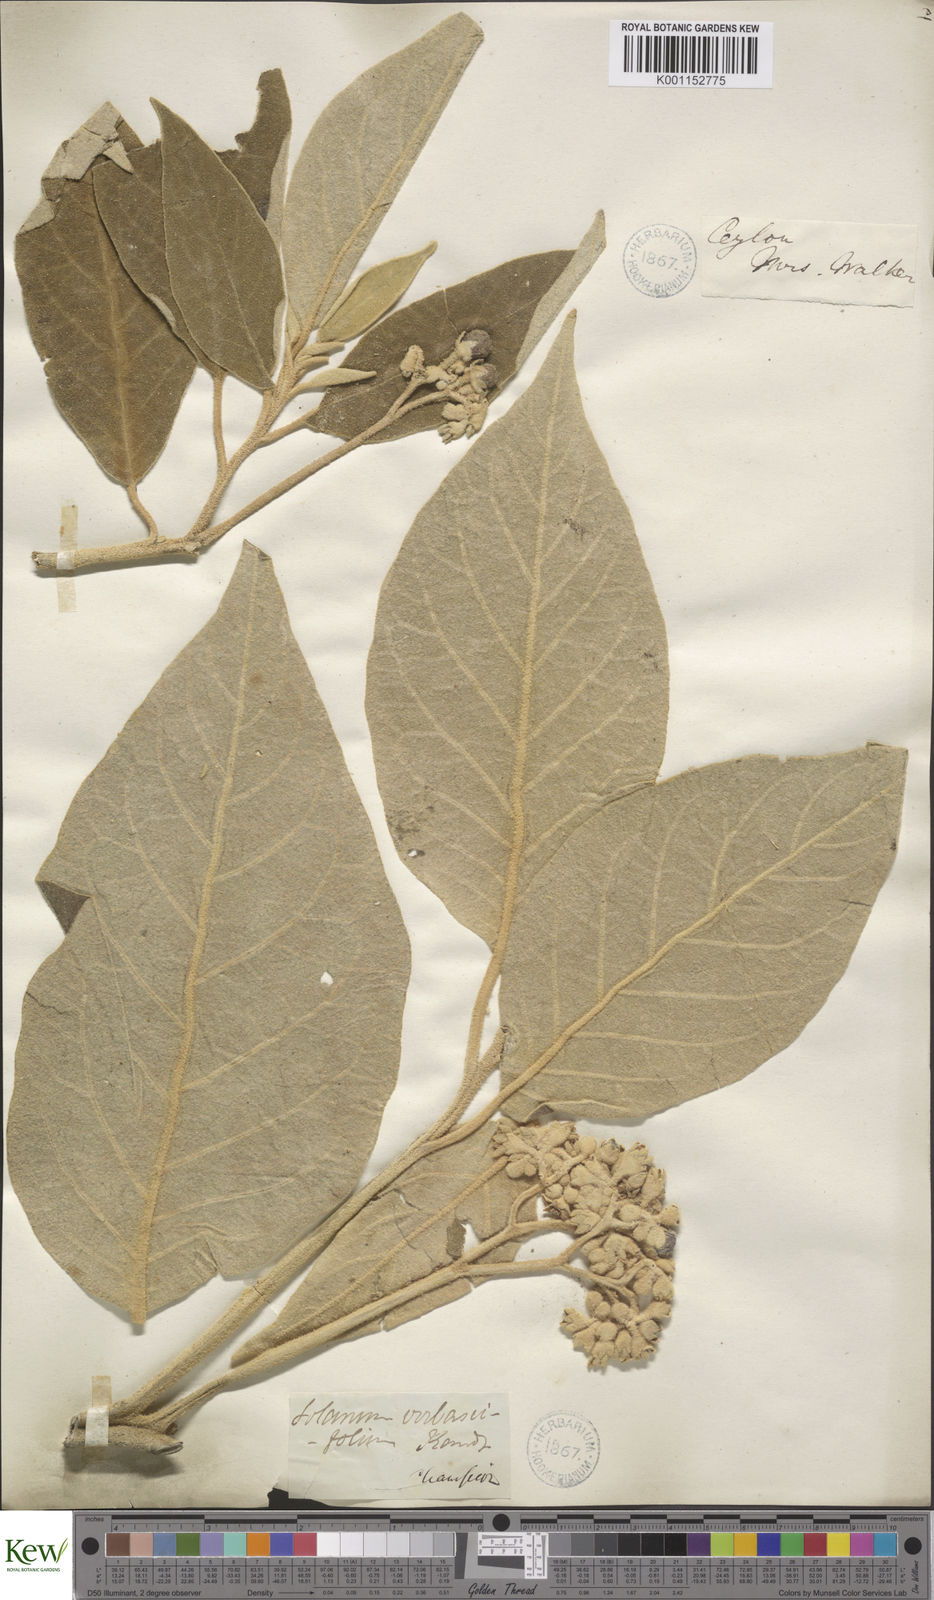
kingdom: Plantae
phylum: Tracheophyta
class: Magnoliopsida
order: Solanales
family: Solanaceae
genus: Solanum
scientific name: Solanum erianthum
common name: Tobacco-tree
